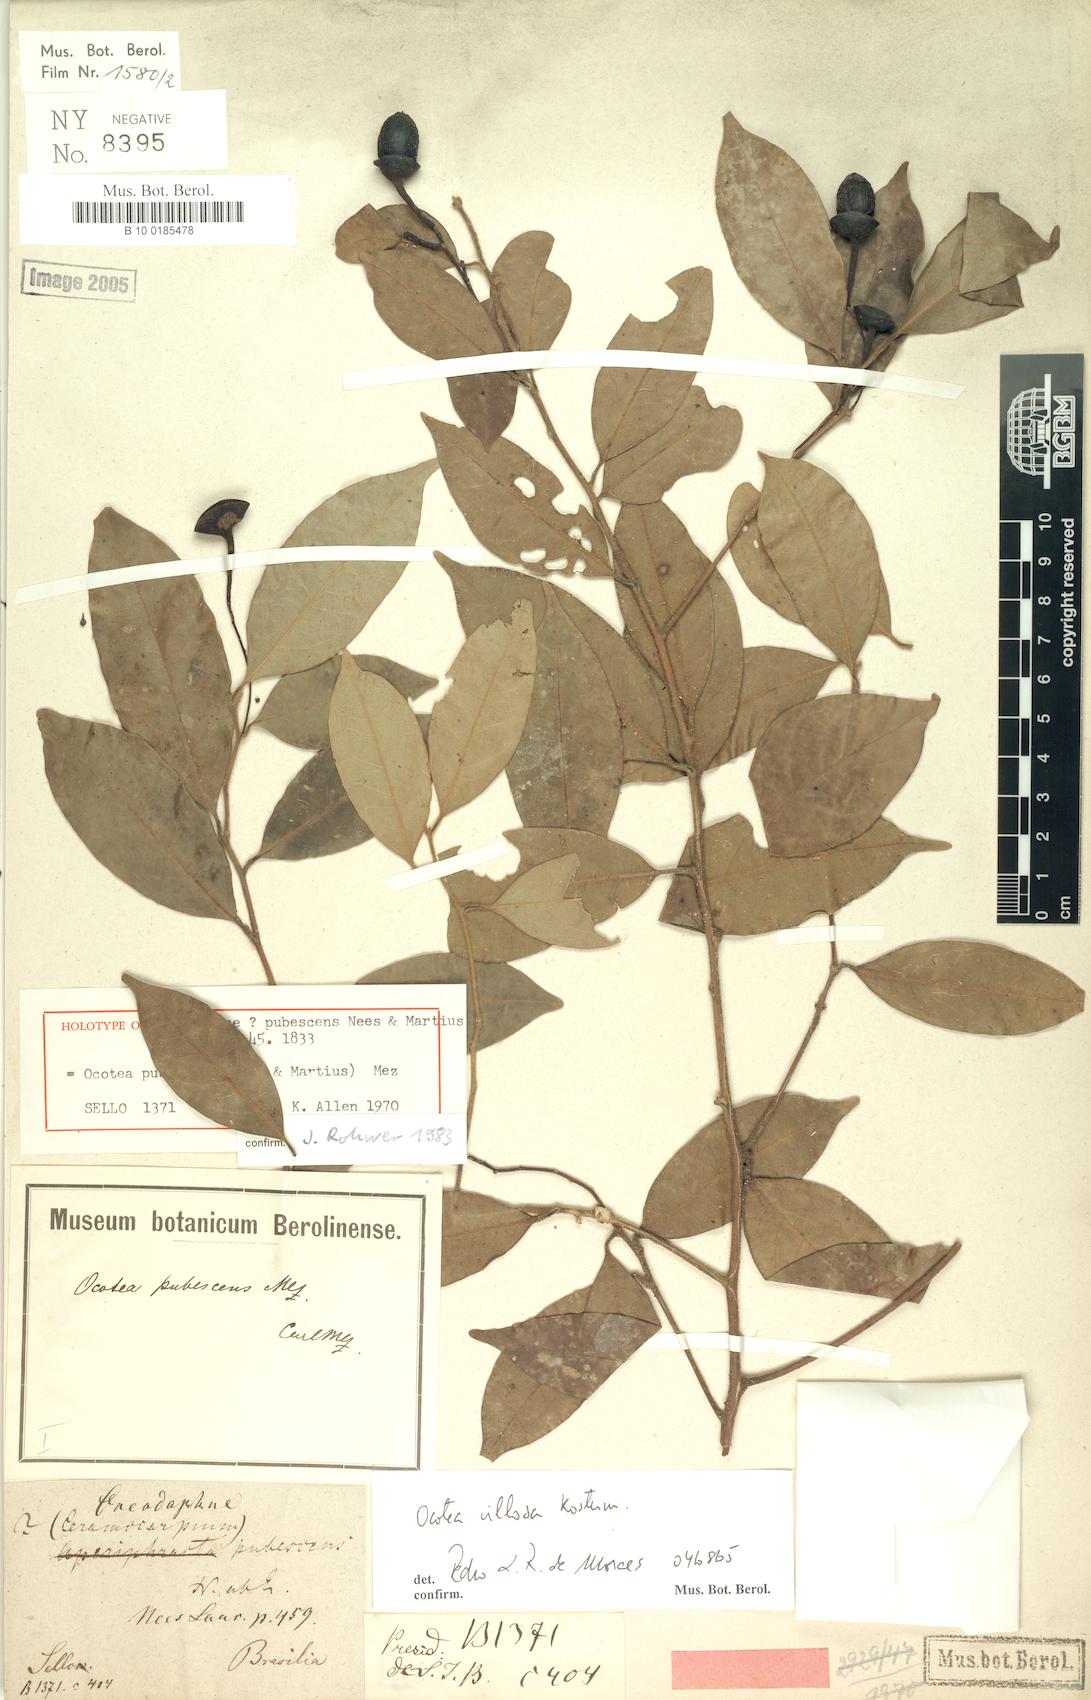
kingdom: Plantae
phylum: Tracheophyta
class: Magnoliopsida
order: Laurales
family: Lauraceae
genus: Ocotea
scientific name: Ocotea villosa
